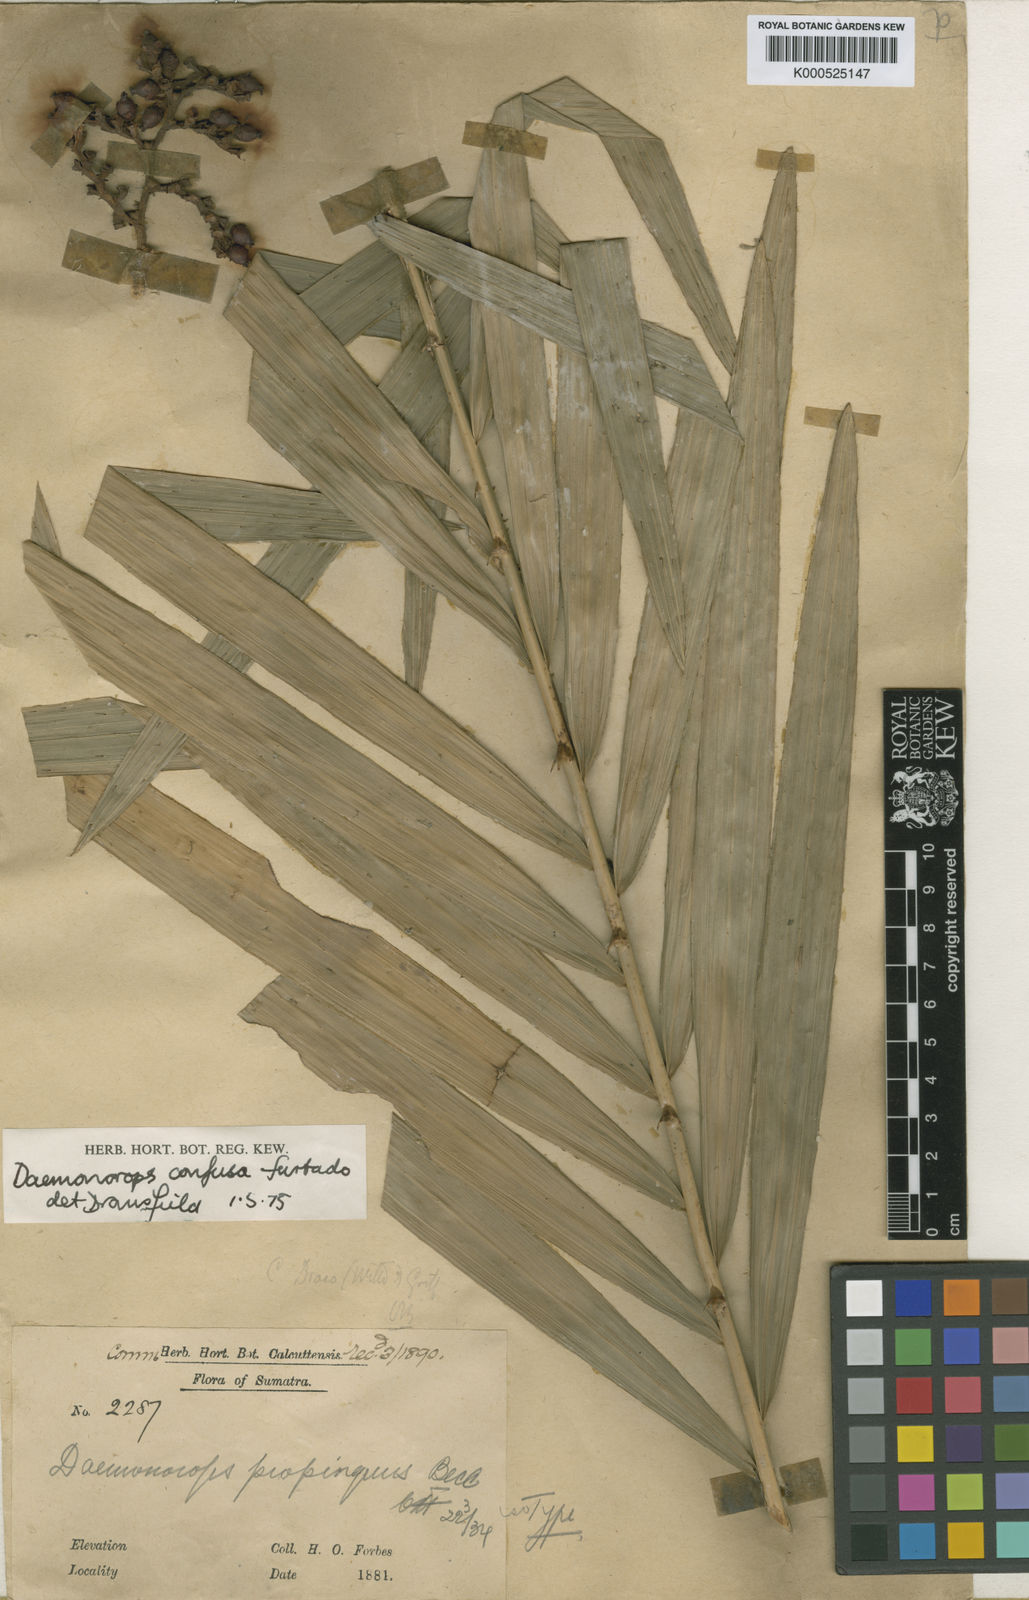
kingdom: Plantae
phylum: Tracheophyta
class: Liliopsida
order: Arecales
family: Arecaceae
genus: Calamus
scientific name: Calamus confusus
